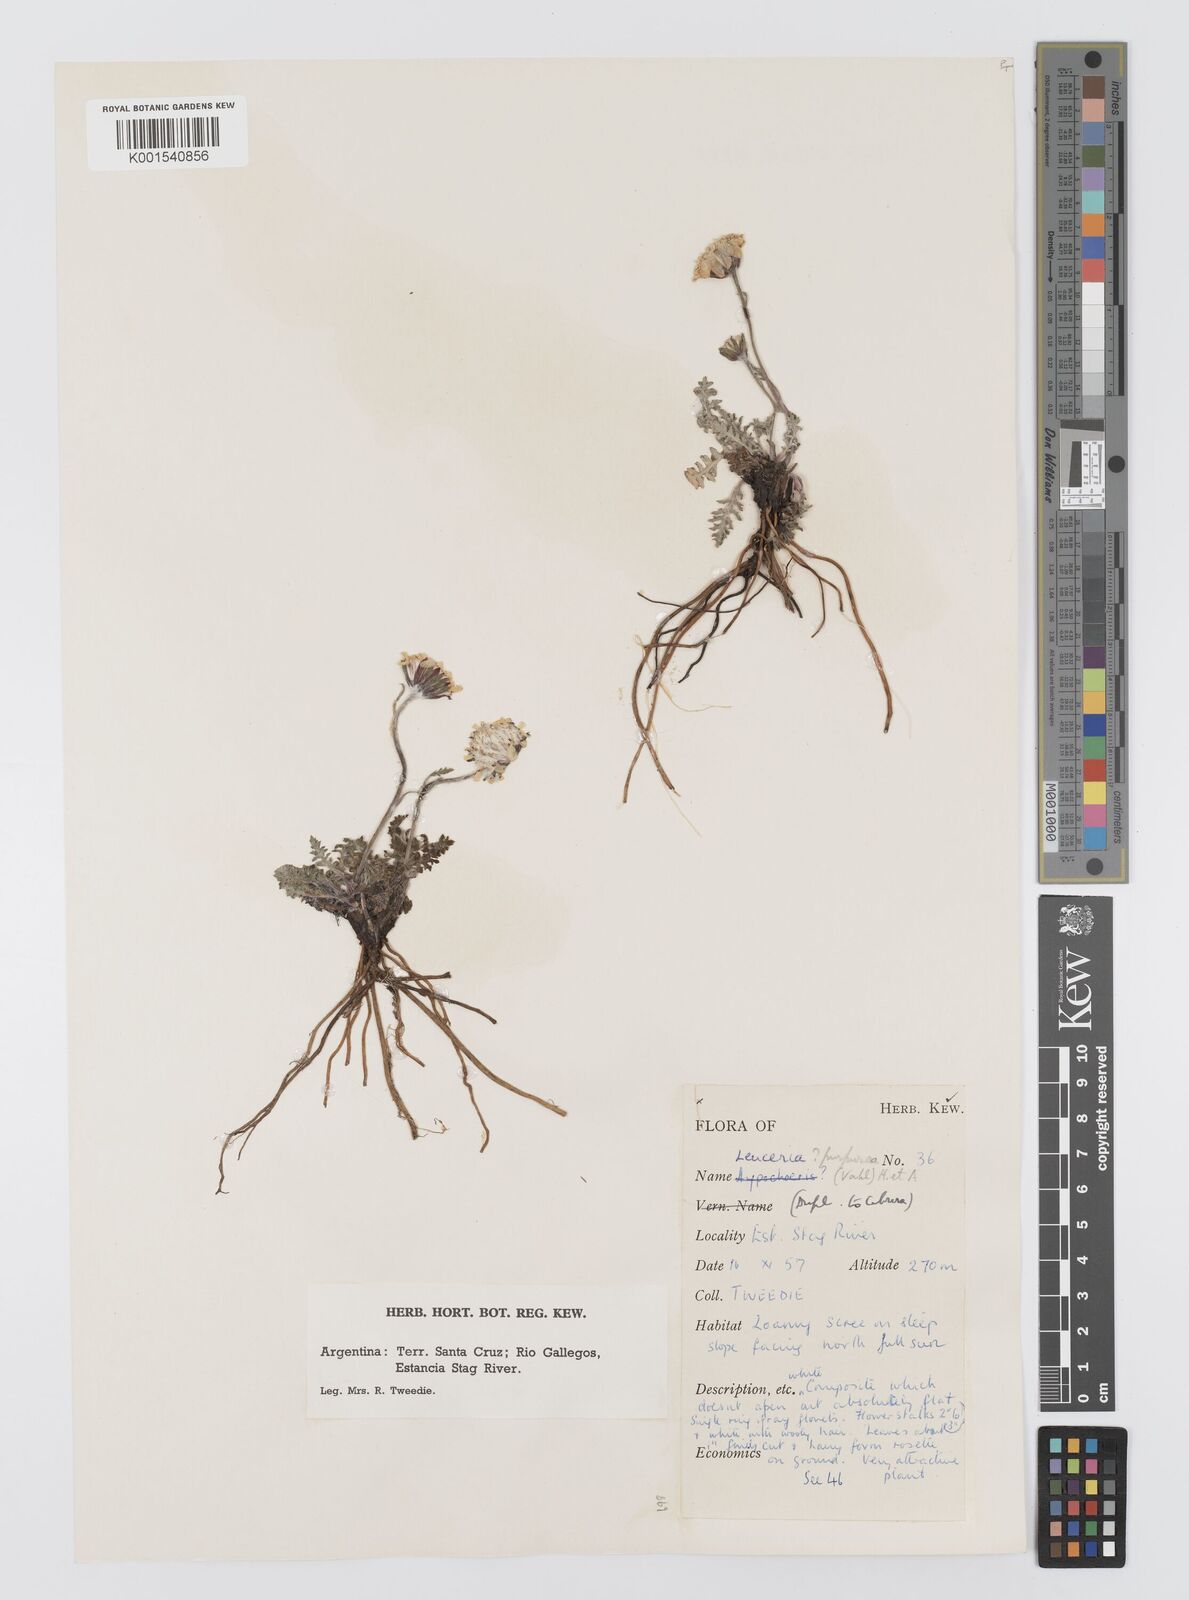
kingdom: Plantae
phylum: Tracheophyta
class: Magnoliopsida
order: Asterales
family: Asteraceae
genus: Leucheria
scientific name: Leucheria purpurea
